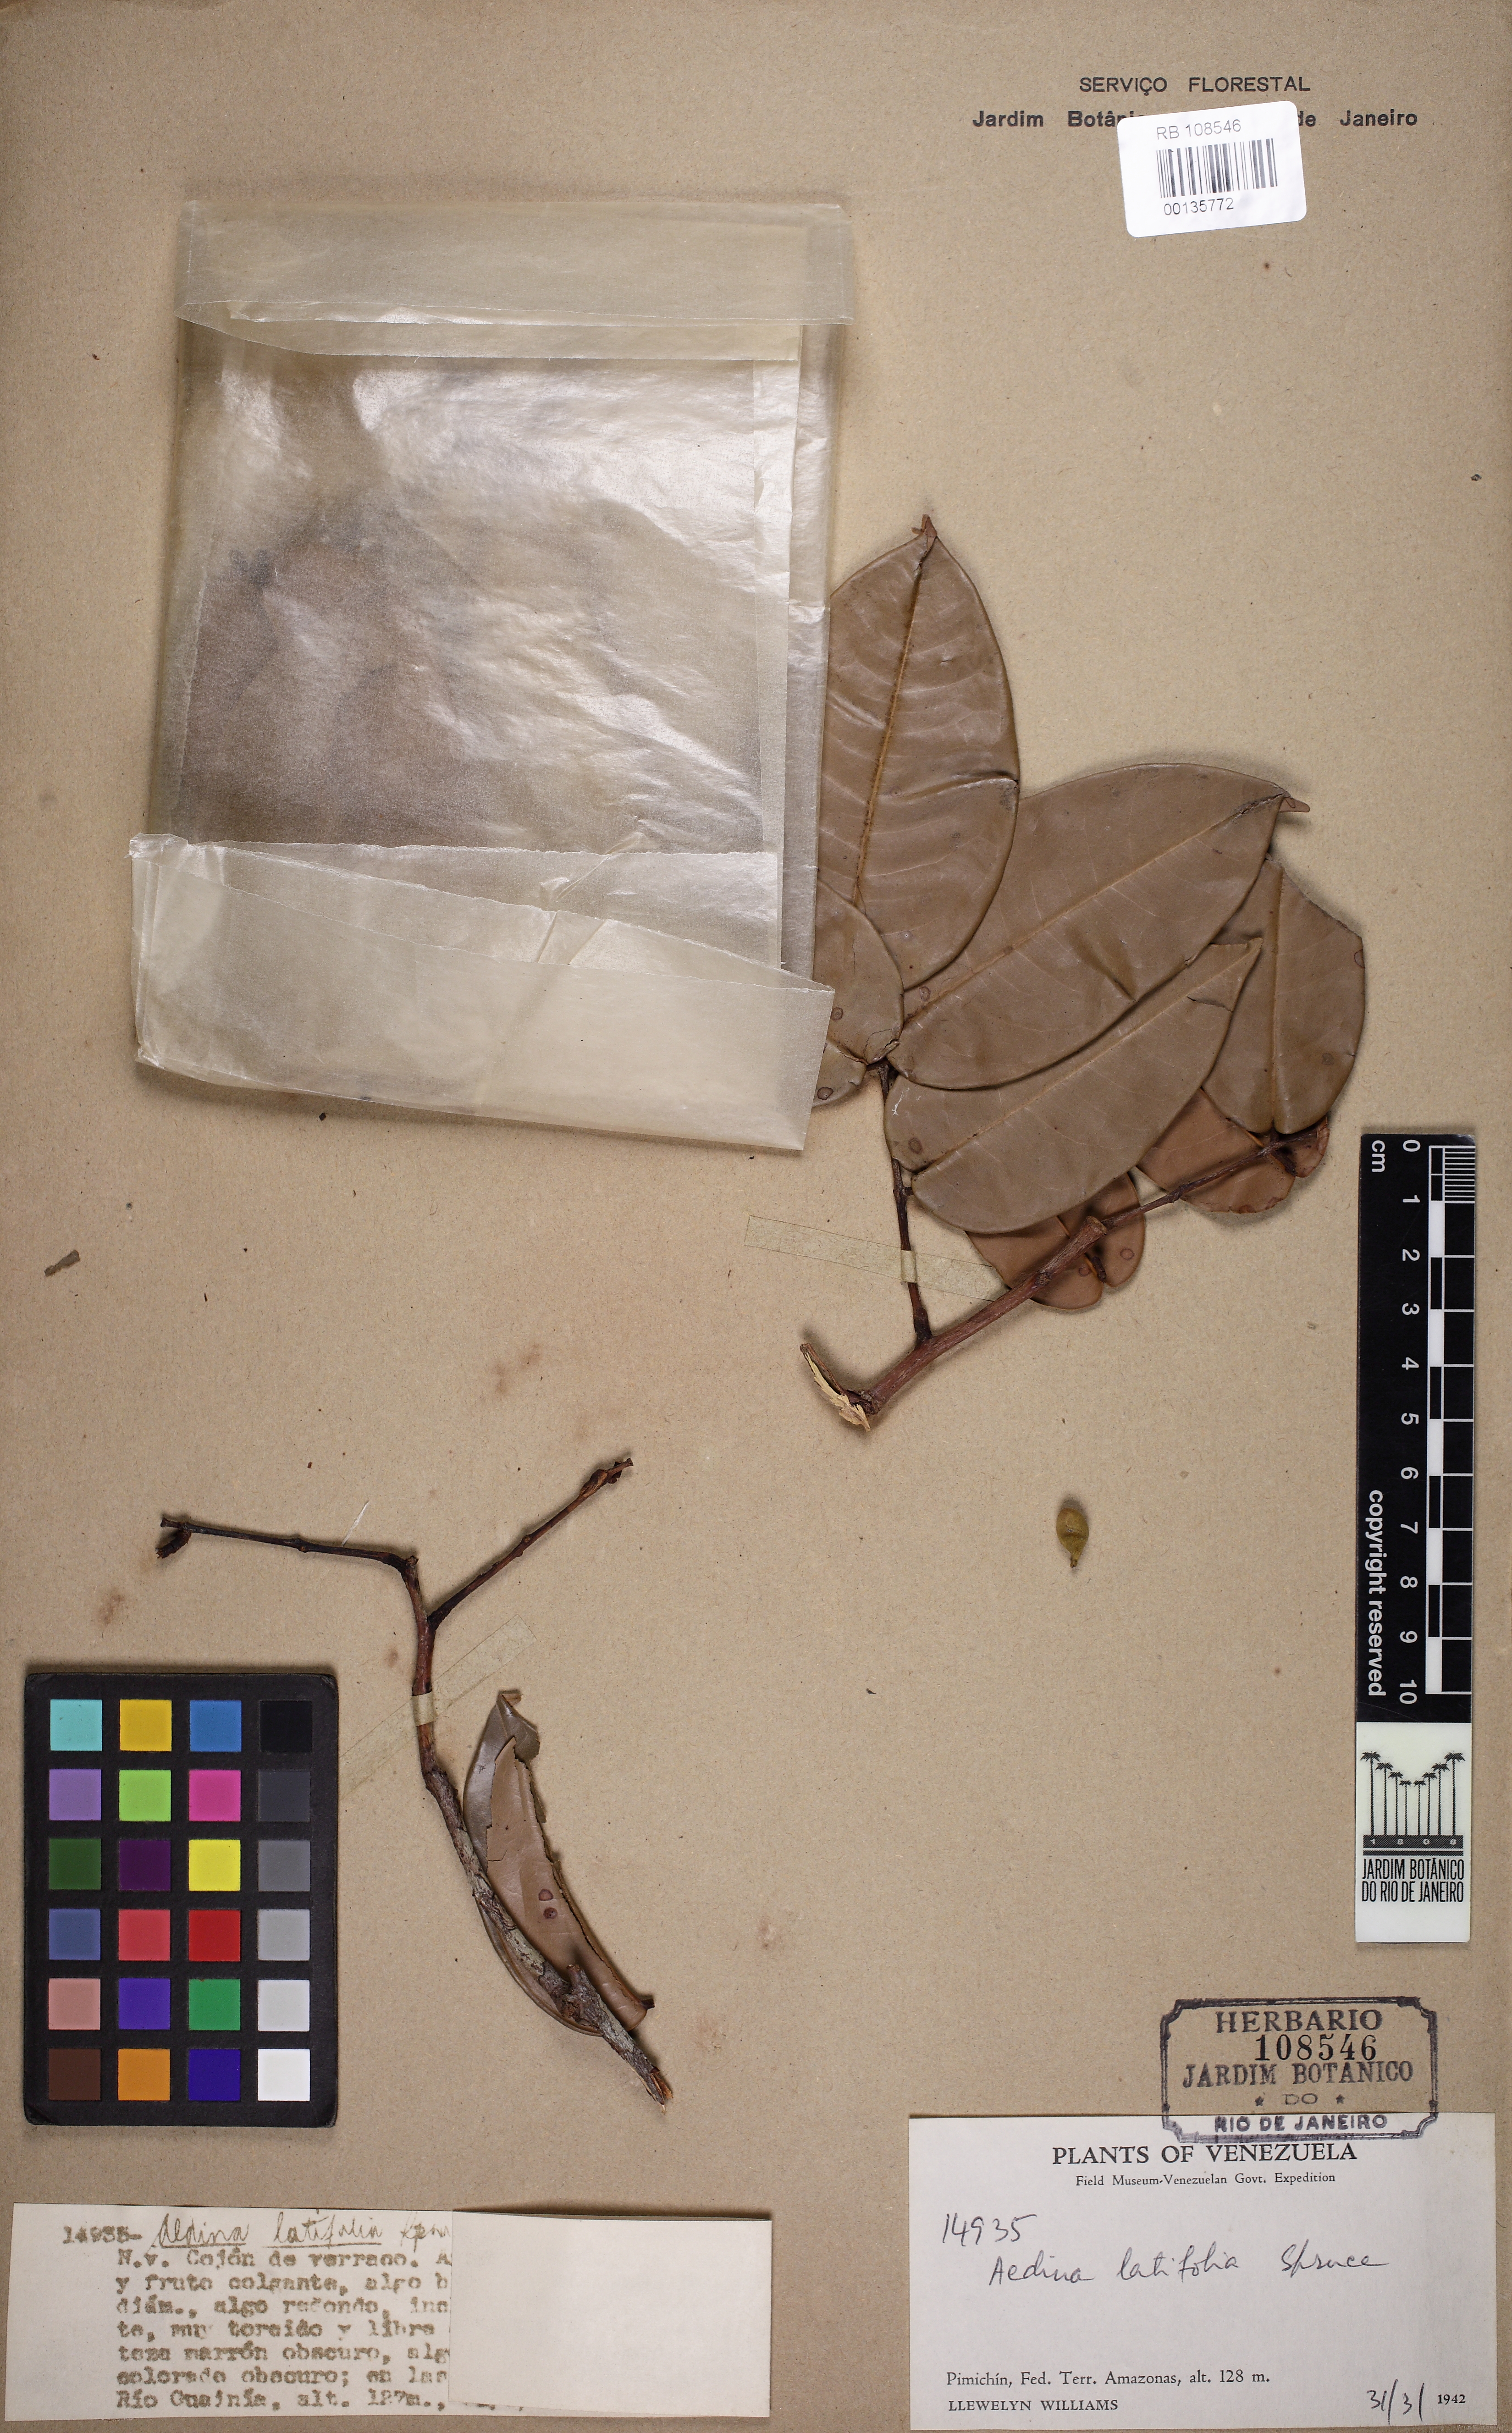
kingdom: Plantae
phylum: Tracheophyta
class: Magnoliopsida
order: Fabales
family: Fabaceae
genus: Aldina
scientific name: Aldina latifolia
